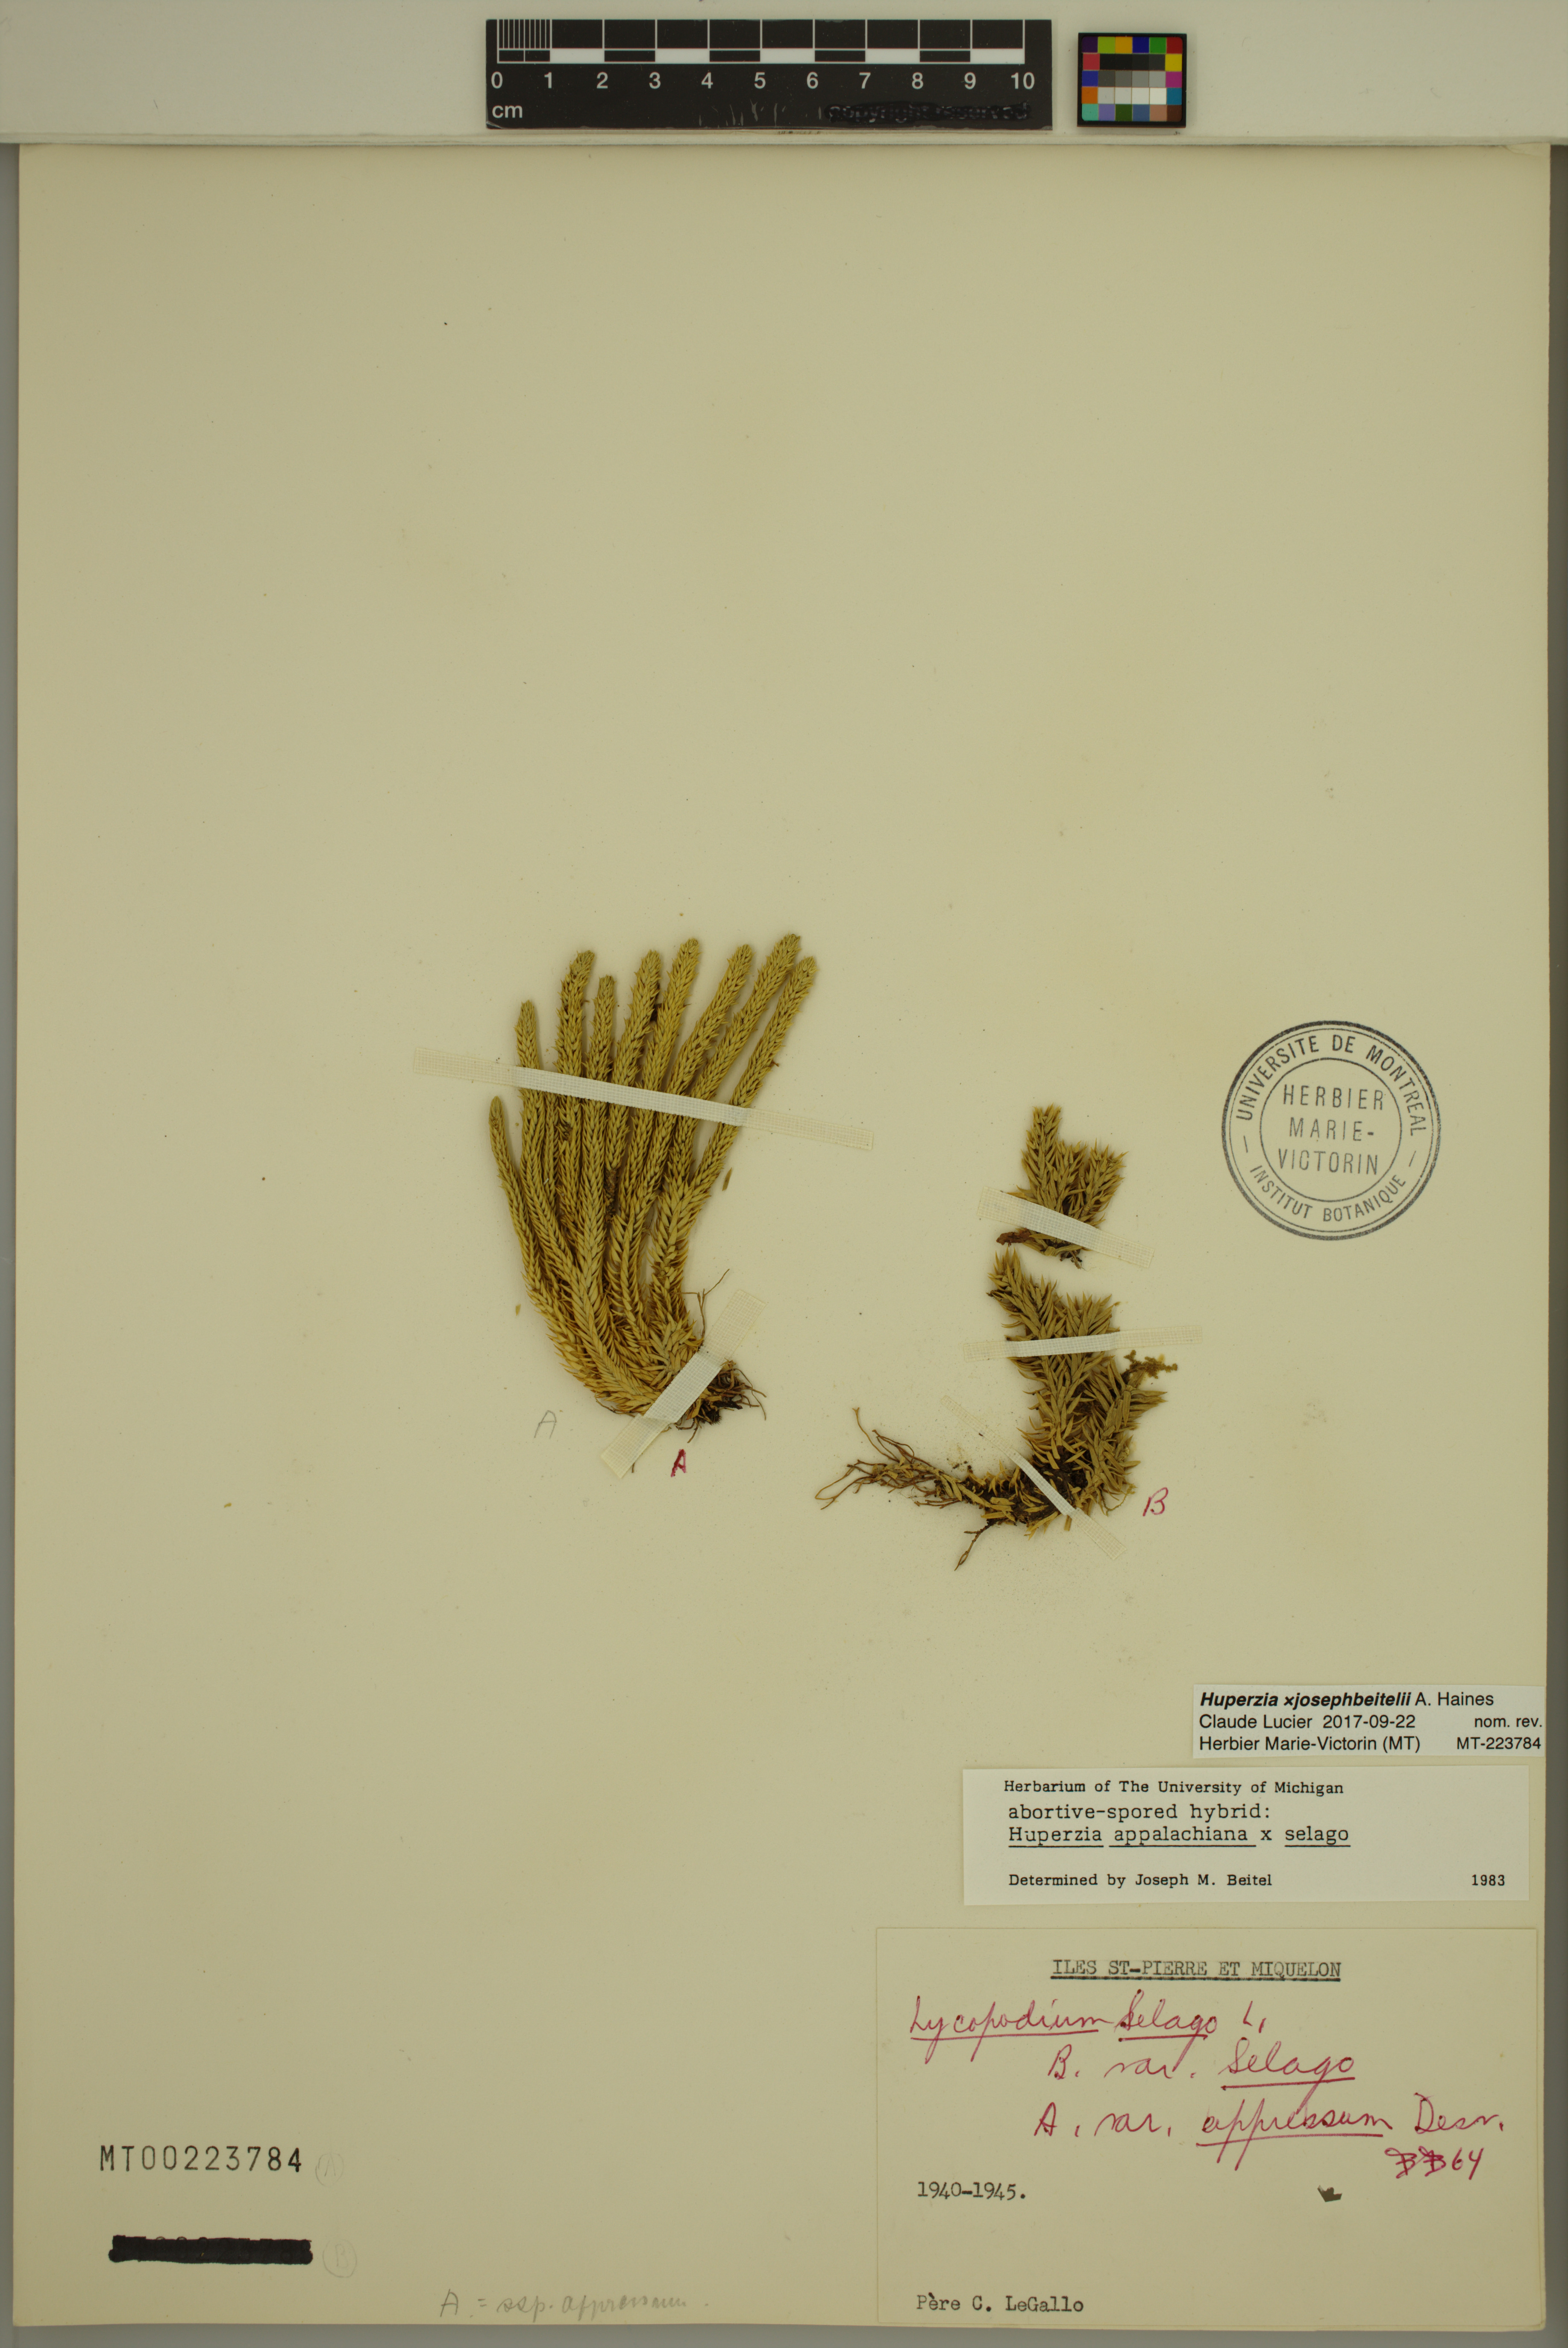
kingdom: Plantae
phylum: Tracheophyta
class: Lycopodiopsida
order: Lycopodiales
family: Lycopodiaceae
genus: Huperzia
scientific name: Huperzia josephbeitelii
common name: Beitel's clubmoss
